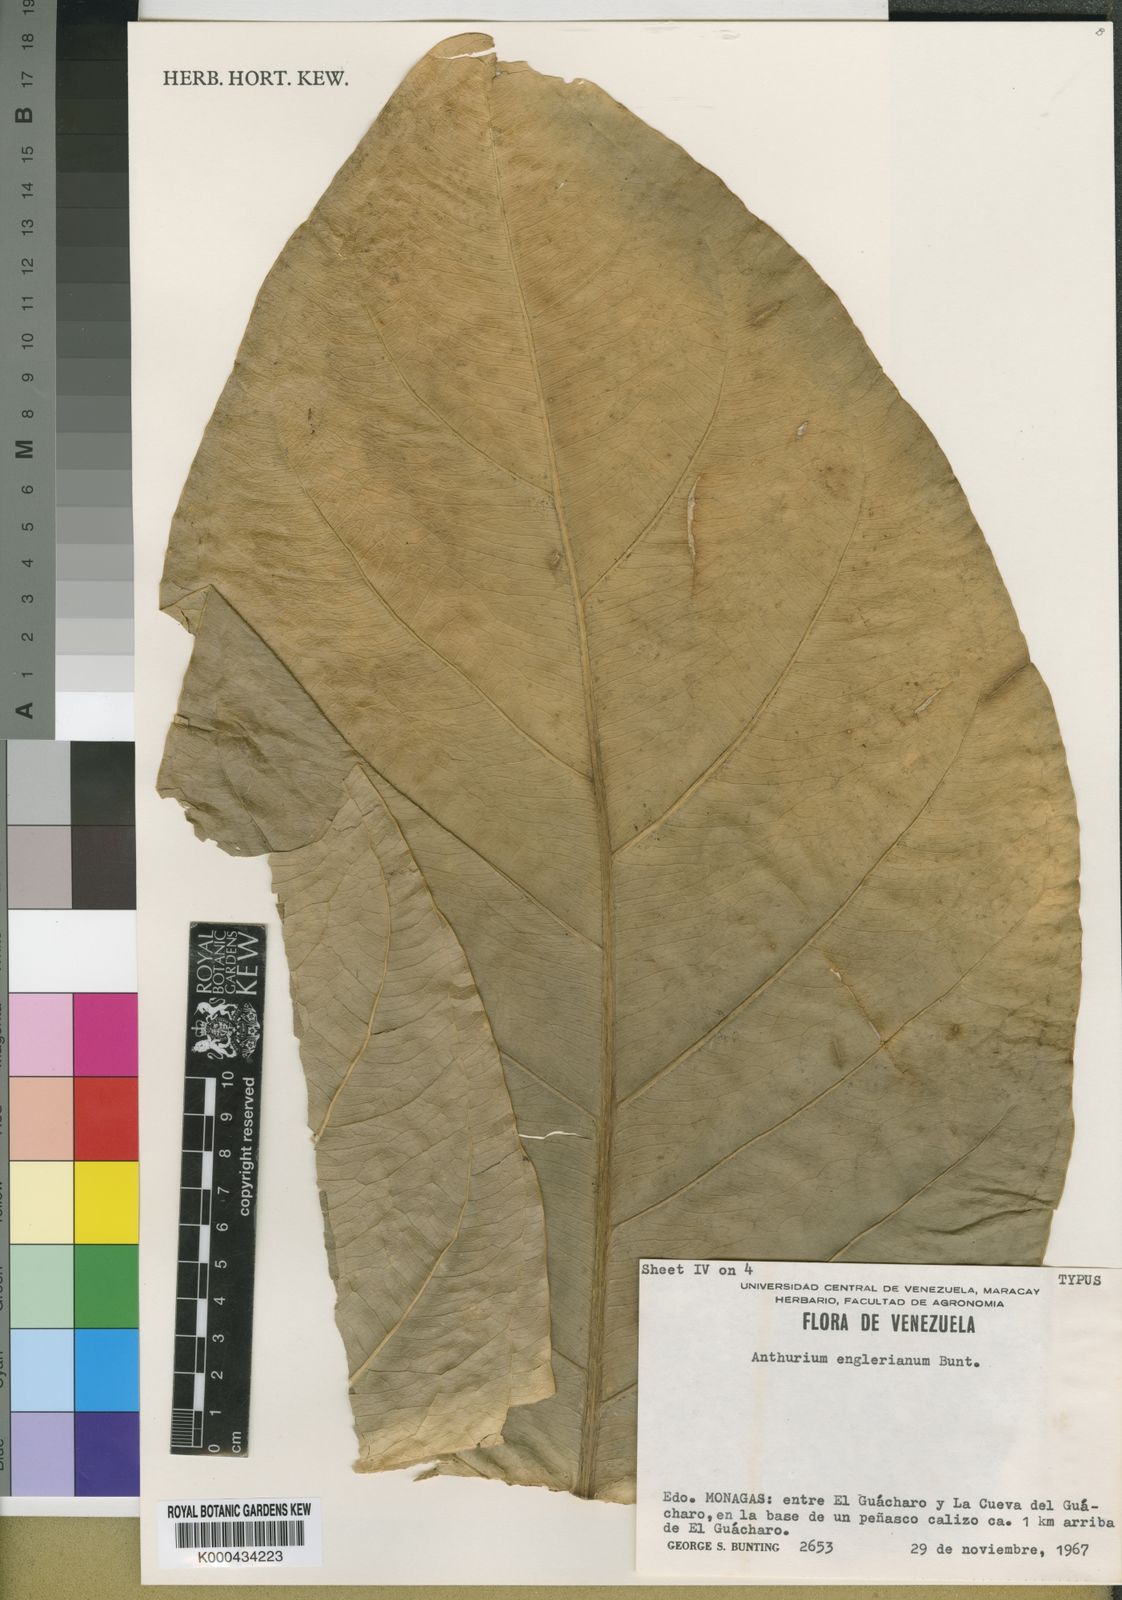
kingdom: Plantae
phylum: Tracheophyta
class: Liliopsida
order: Alismatales
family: Araceae
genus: Anthurium
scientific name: Anthurium jenmanii
